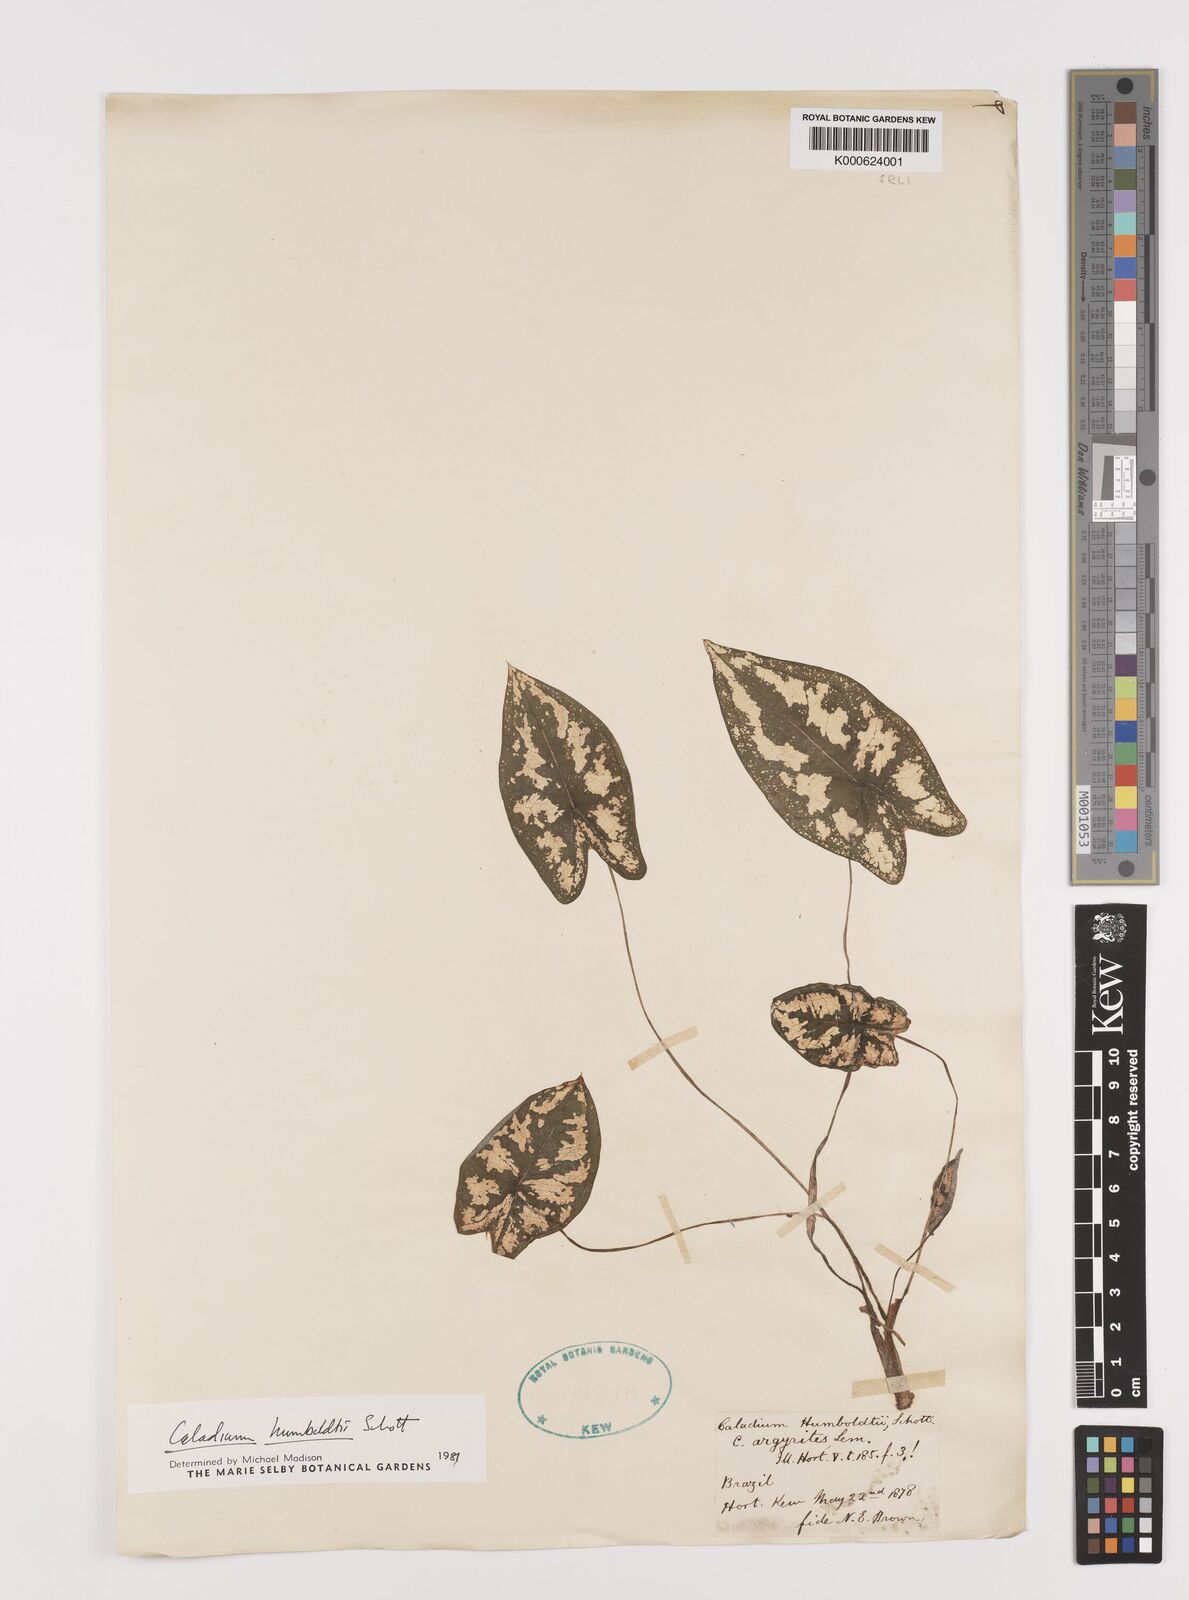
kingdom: Plantae
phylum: Tracheophyta
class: Liliopsida
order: Alismatales
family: Araceae
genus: Caladium
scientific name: Caladium humboldtii
